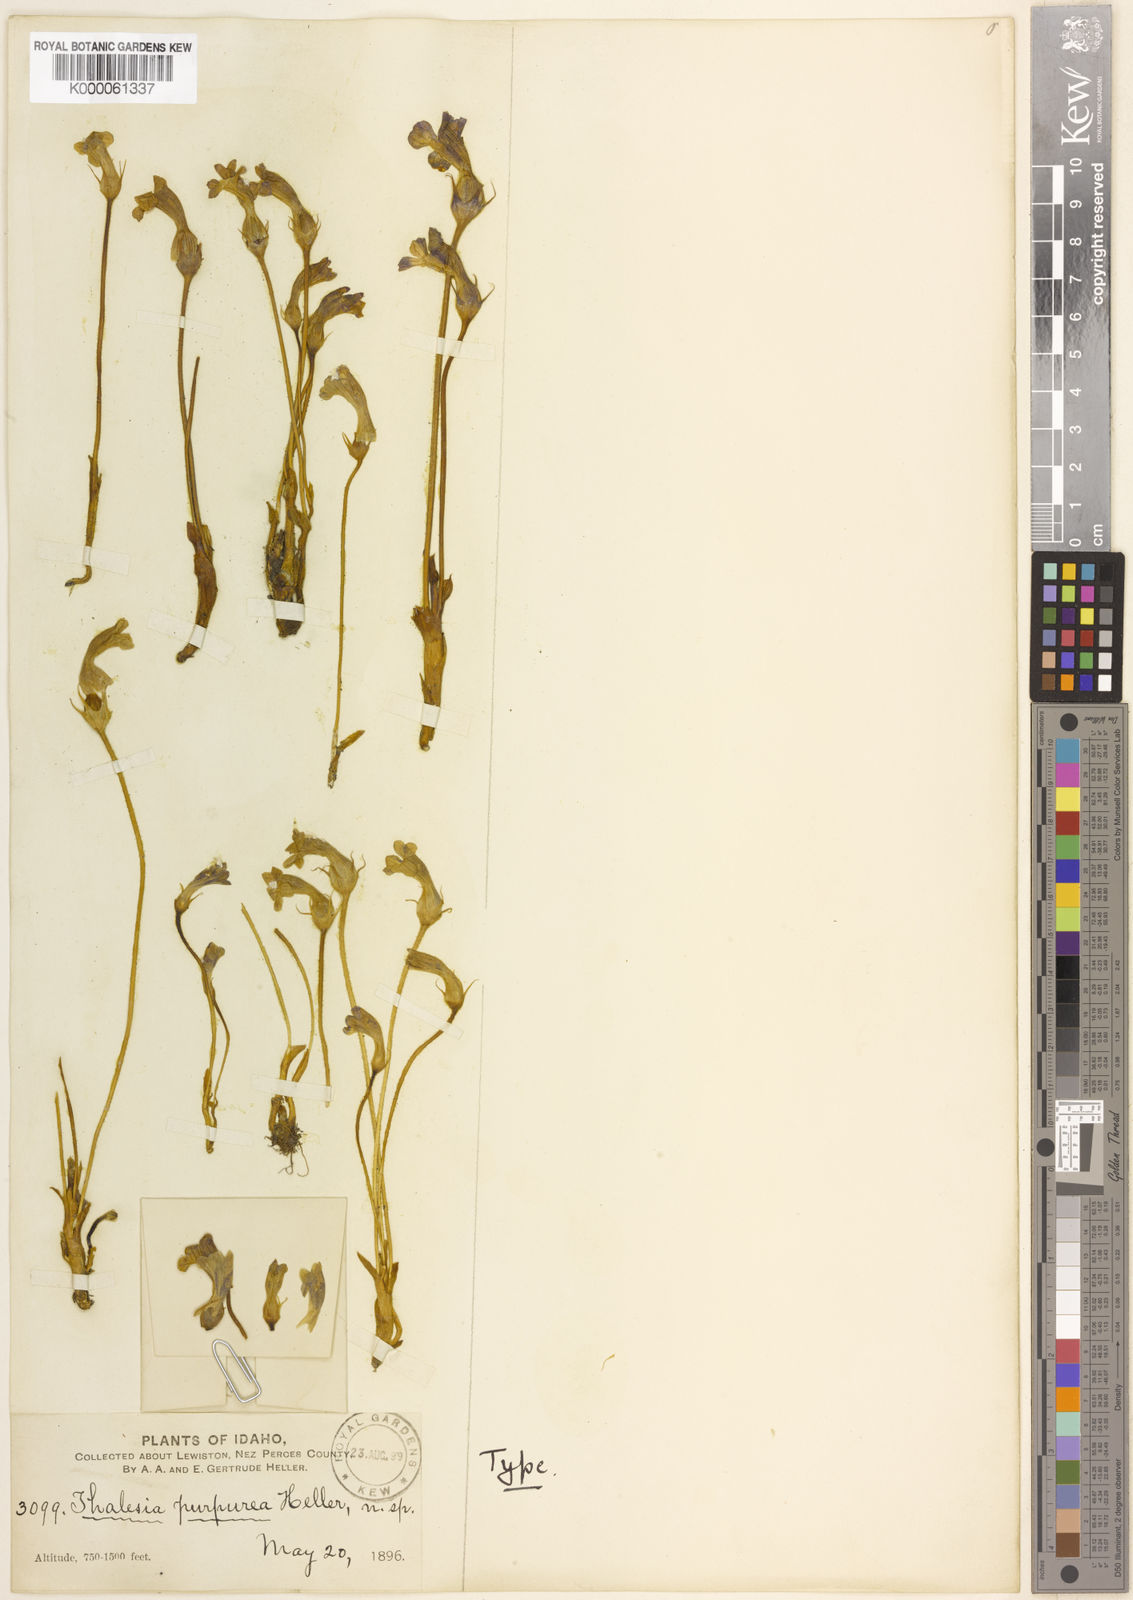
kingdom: Plantae
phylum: Tracheophyta
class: Magnoliopsida
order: Lamiales
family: Orobanchaceae
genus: Aphyllon
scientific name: Aphyllon uniflorum
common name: One-flowered broomrape
